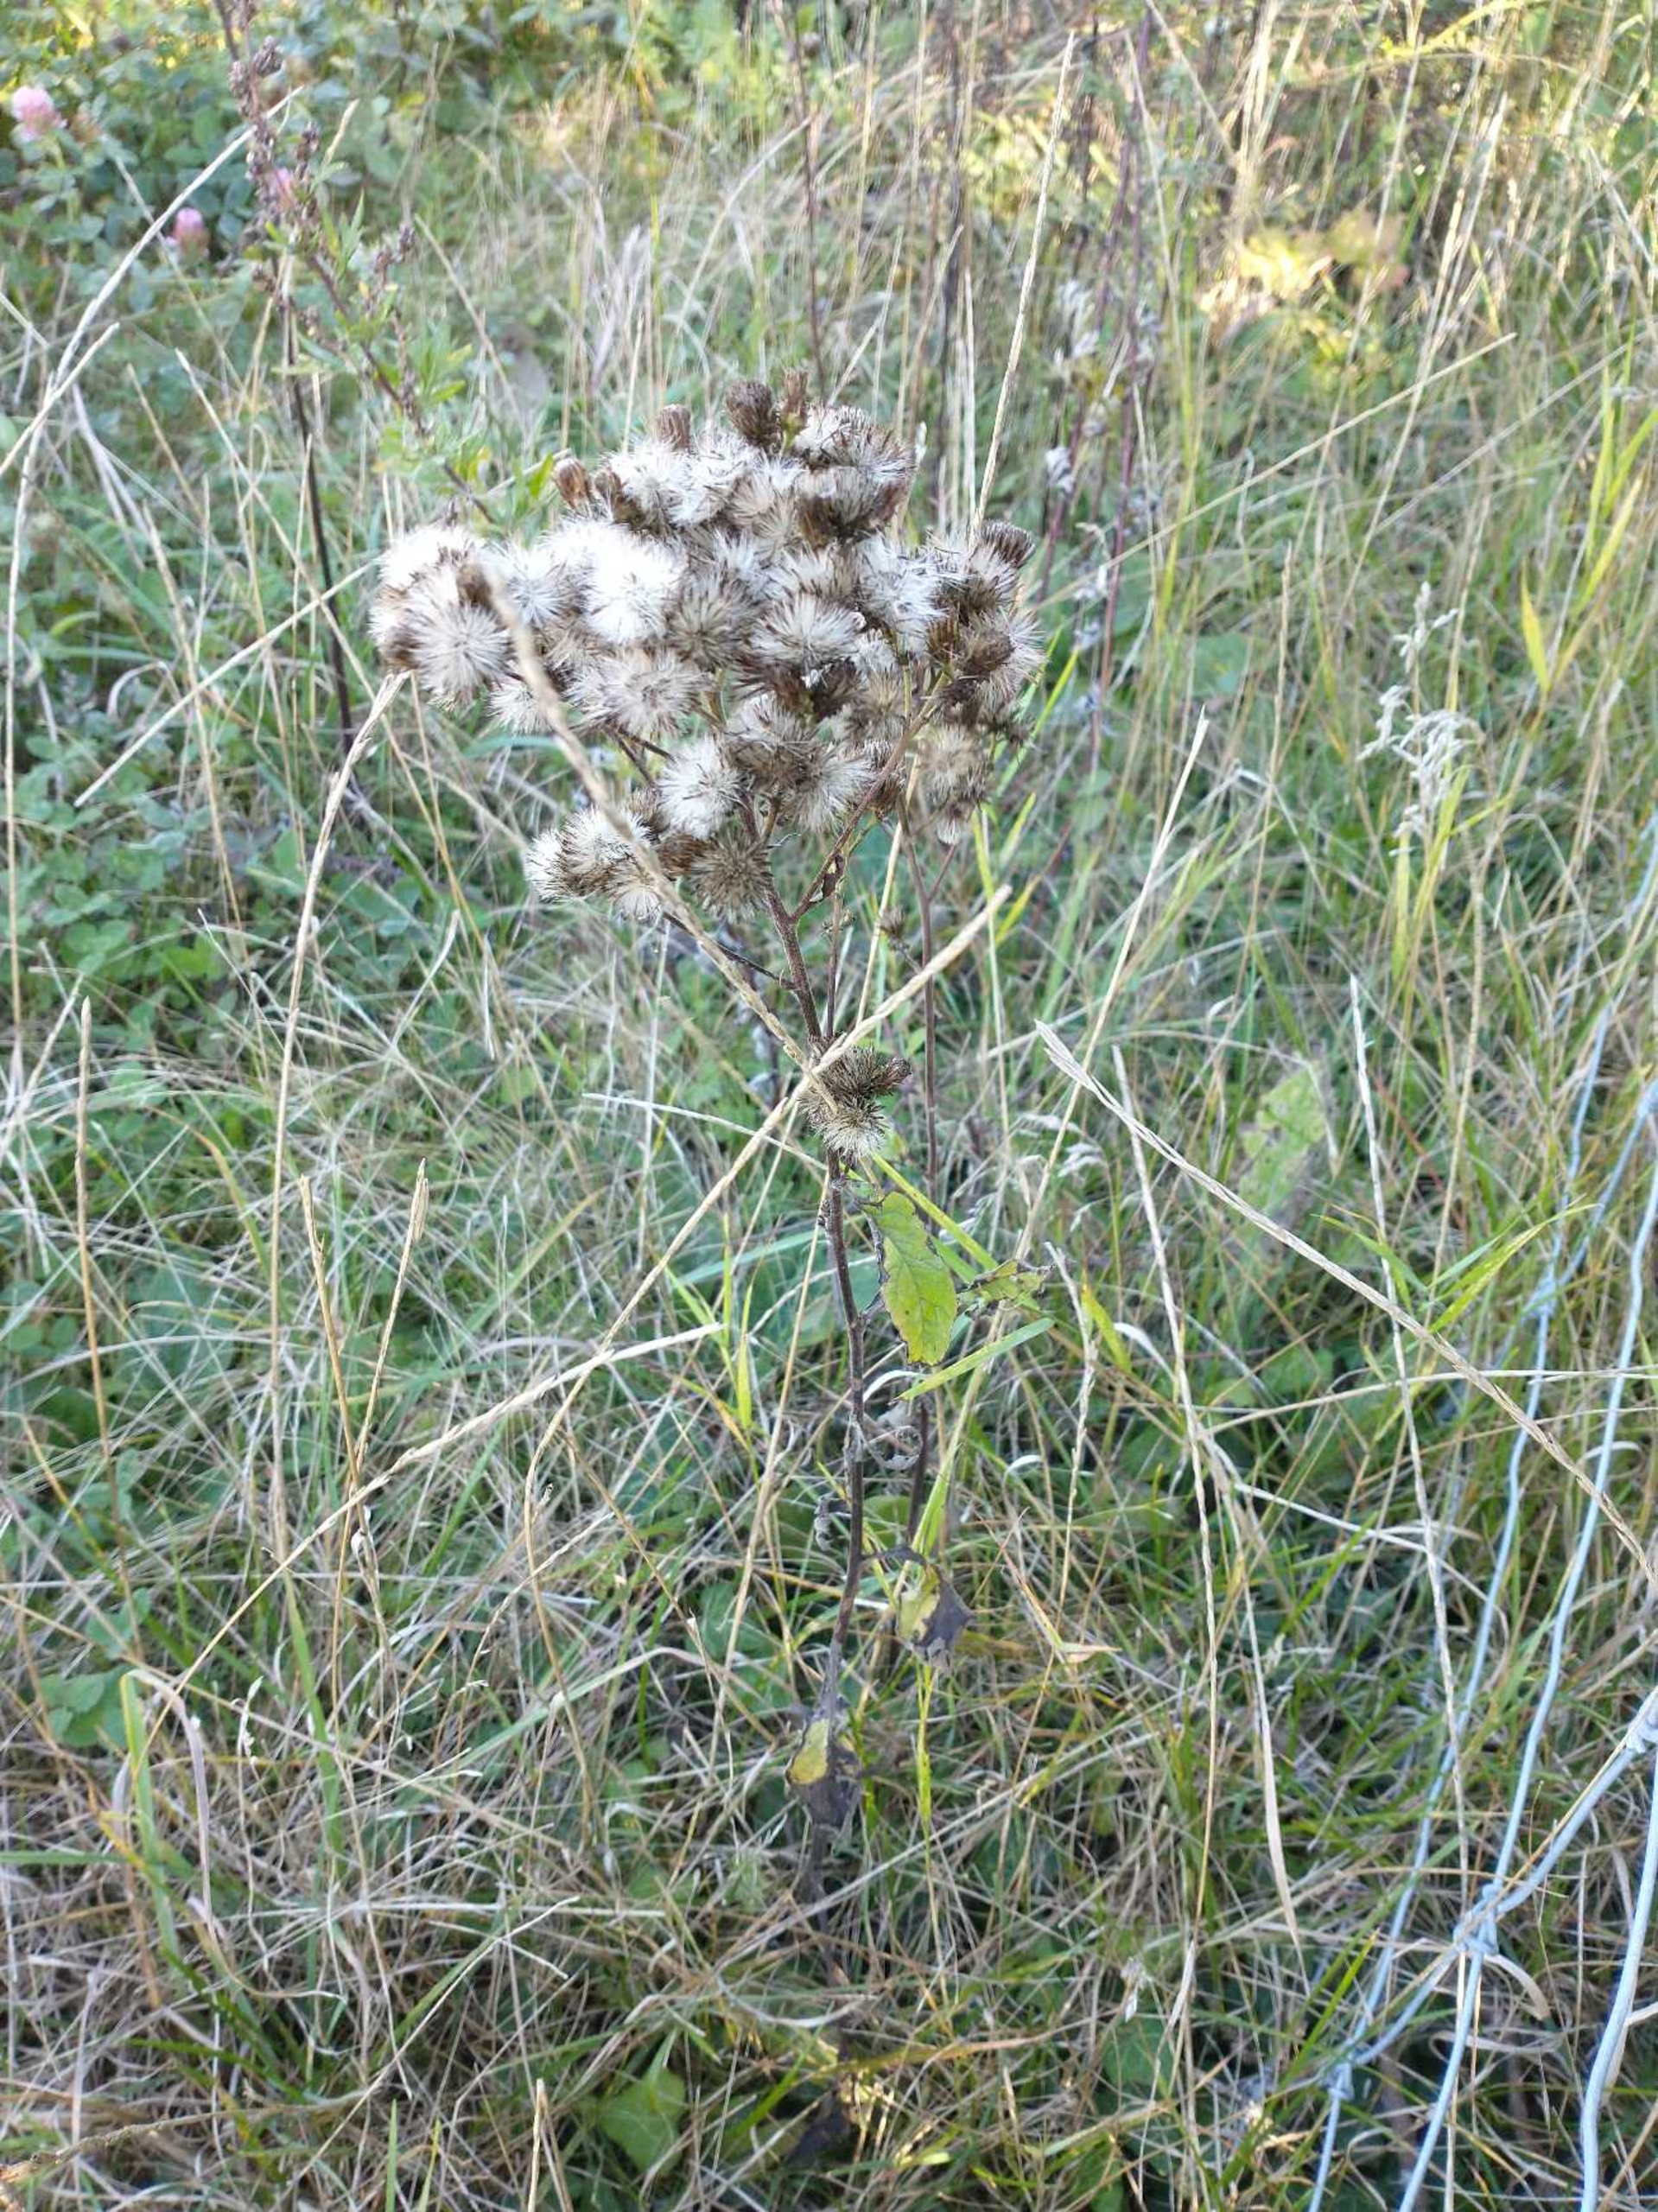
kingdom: Plantae
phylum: Tracheophyta
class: Magnoliopsida
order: Asterales
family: Asteraceae
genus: Pentanema
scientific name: Pentanema squarrosum
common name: Trekløft-alant
